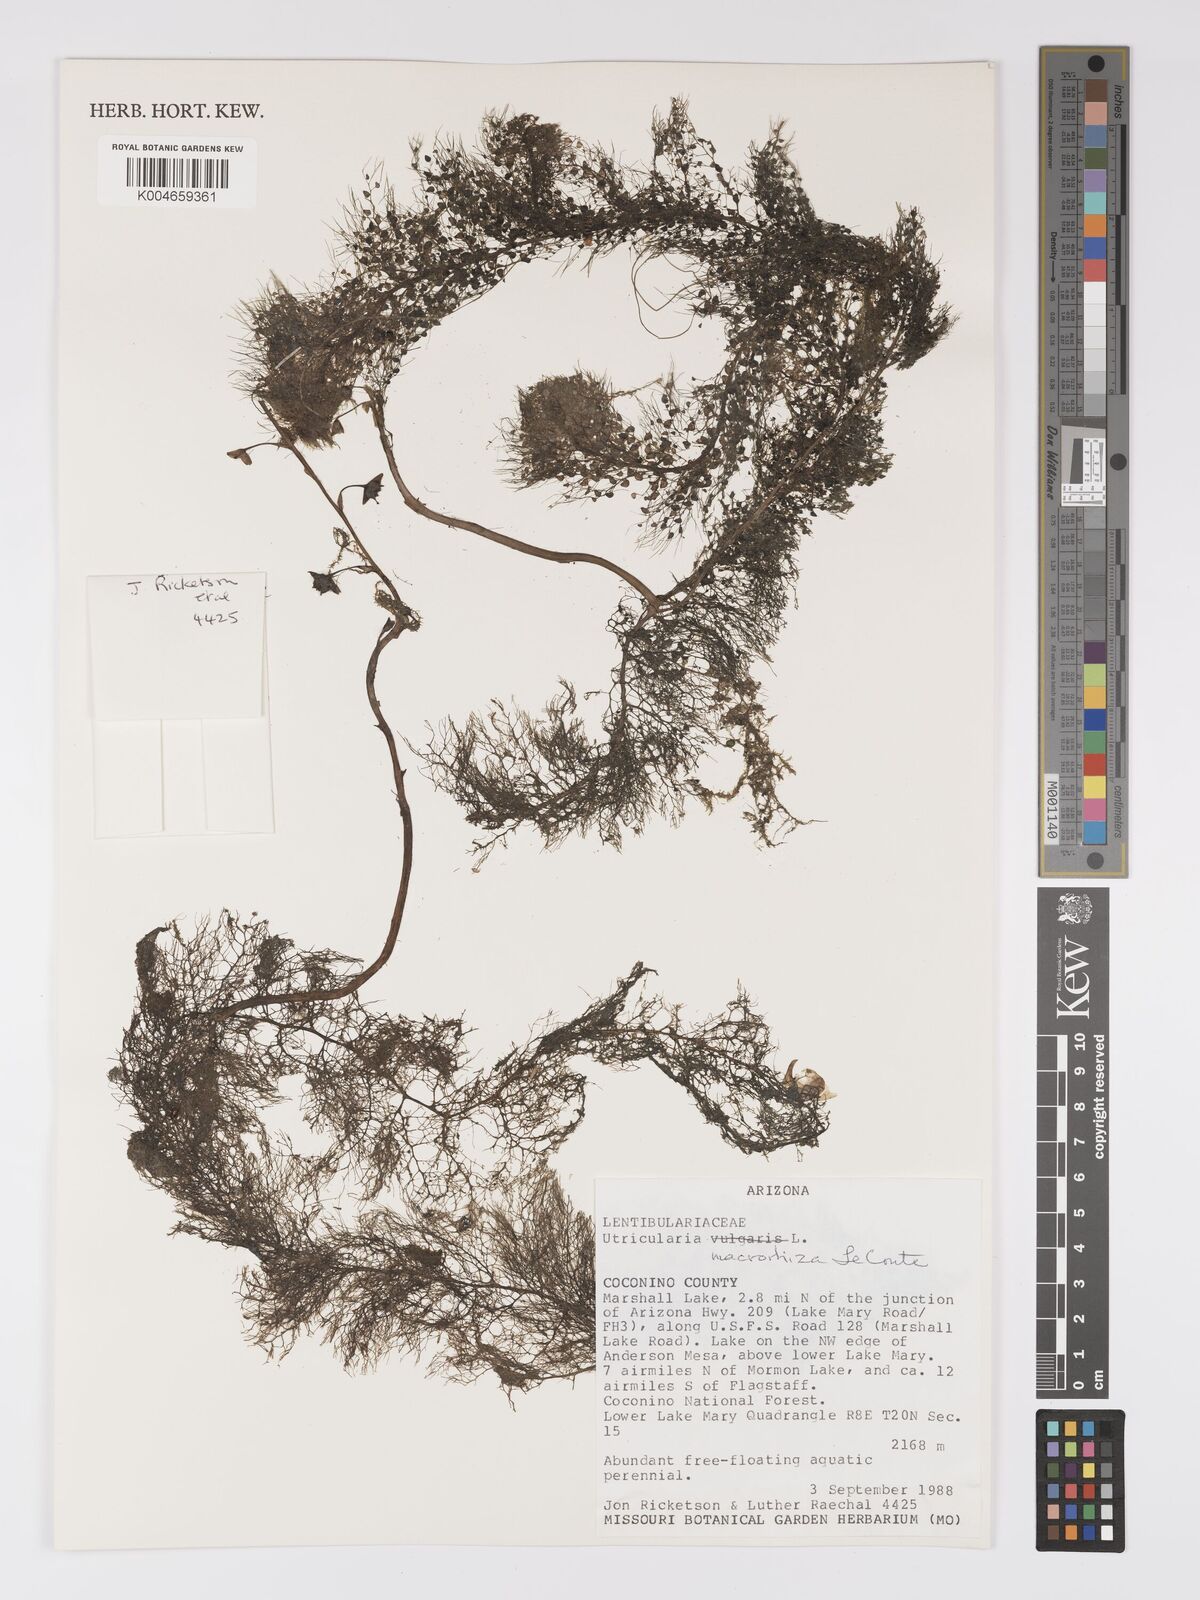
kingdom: Plantae
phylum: Tracheophyta
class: Magnoliopsida
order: Lamiales
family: Lentibulariaceae
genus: Utricularia
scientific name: Utricularia macrorhiza
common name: Common bladderwort
